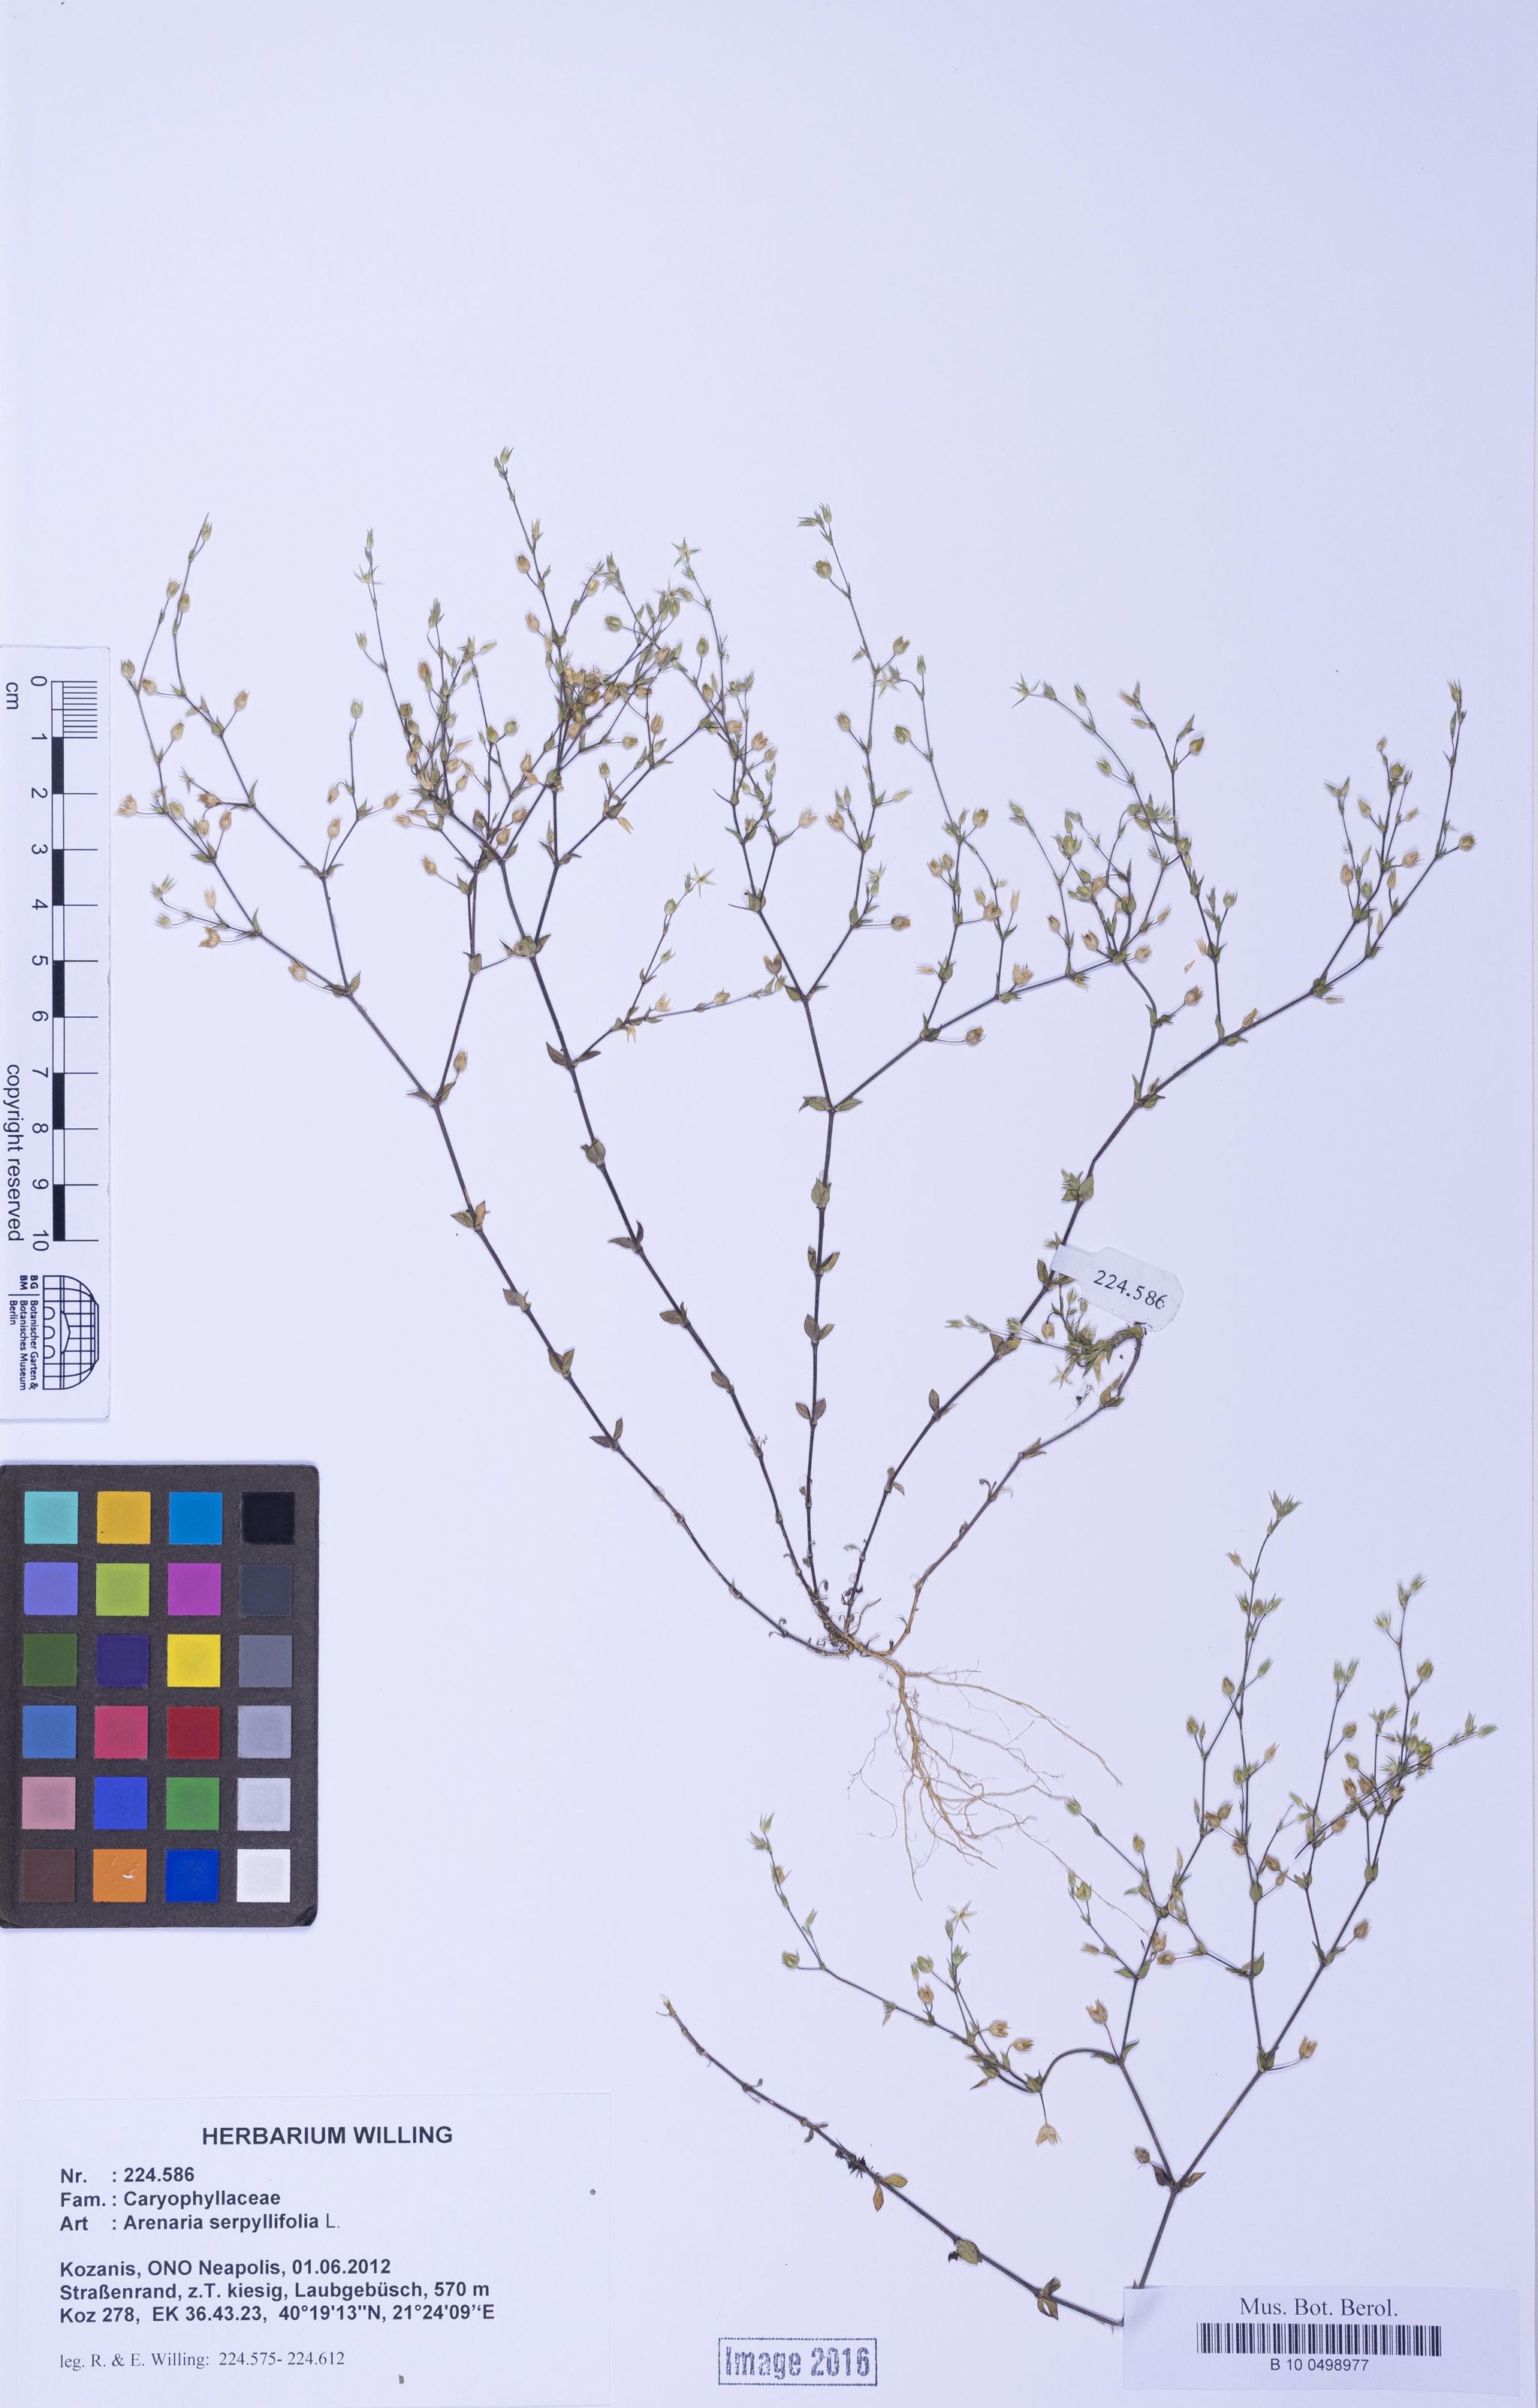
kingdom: Plantae
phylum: Tracheophyta
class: Magnoliopsida
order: Caryophyllales
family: Caryophyllaceae
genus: Arenaria
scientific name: Arenaria serpyllifolia
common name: Thyme-leaved sandwort
